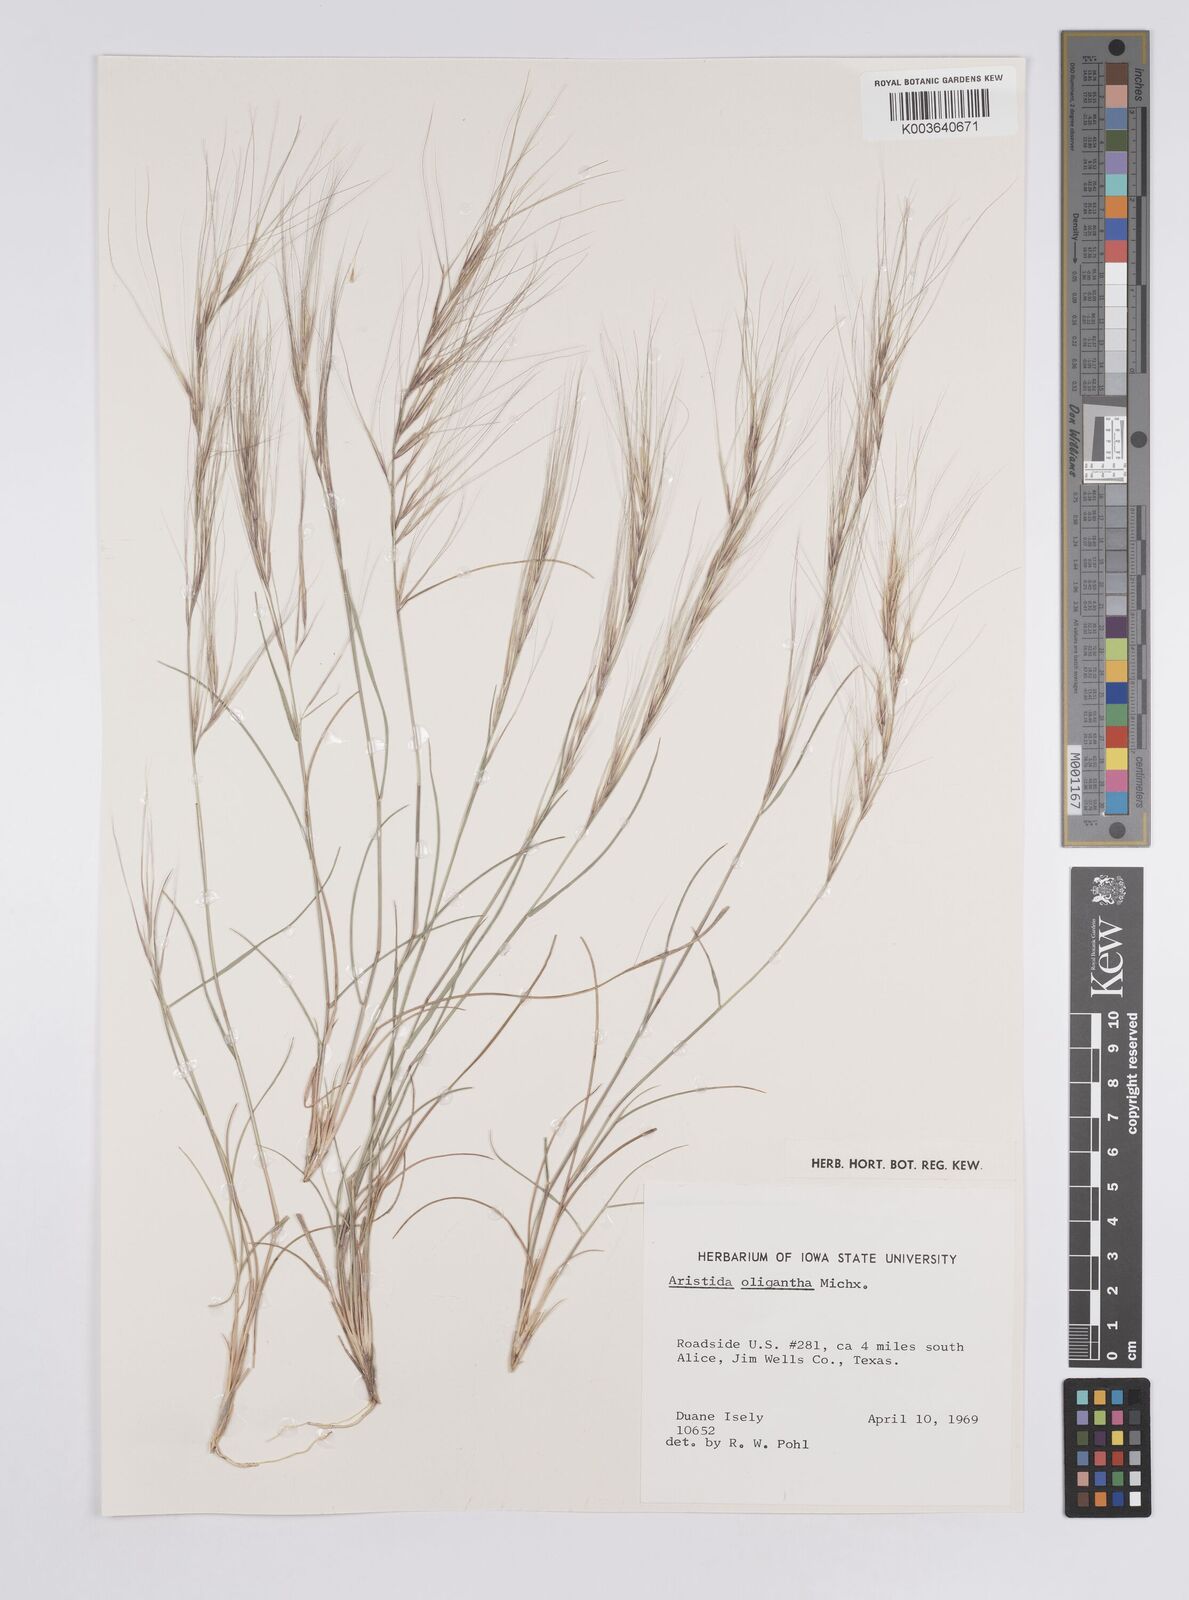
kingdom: Plantae
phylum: Tracheophyta
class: Liliopsida
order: Poales
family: Poaceae
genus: Aristida
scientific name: Aristida oligantha
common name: Few-flowered aristida
